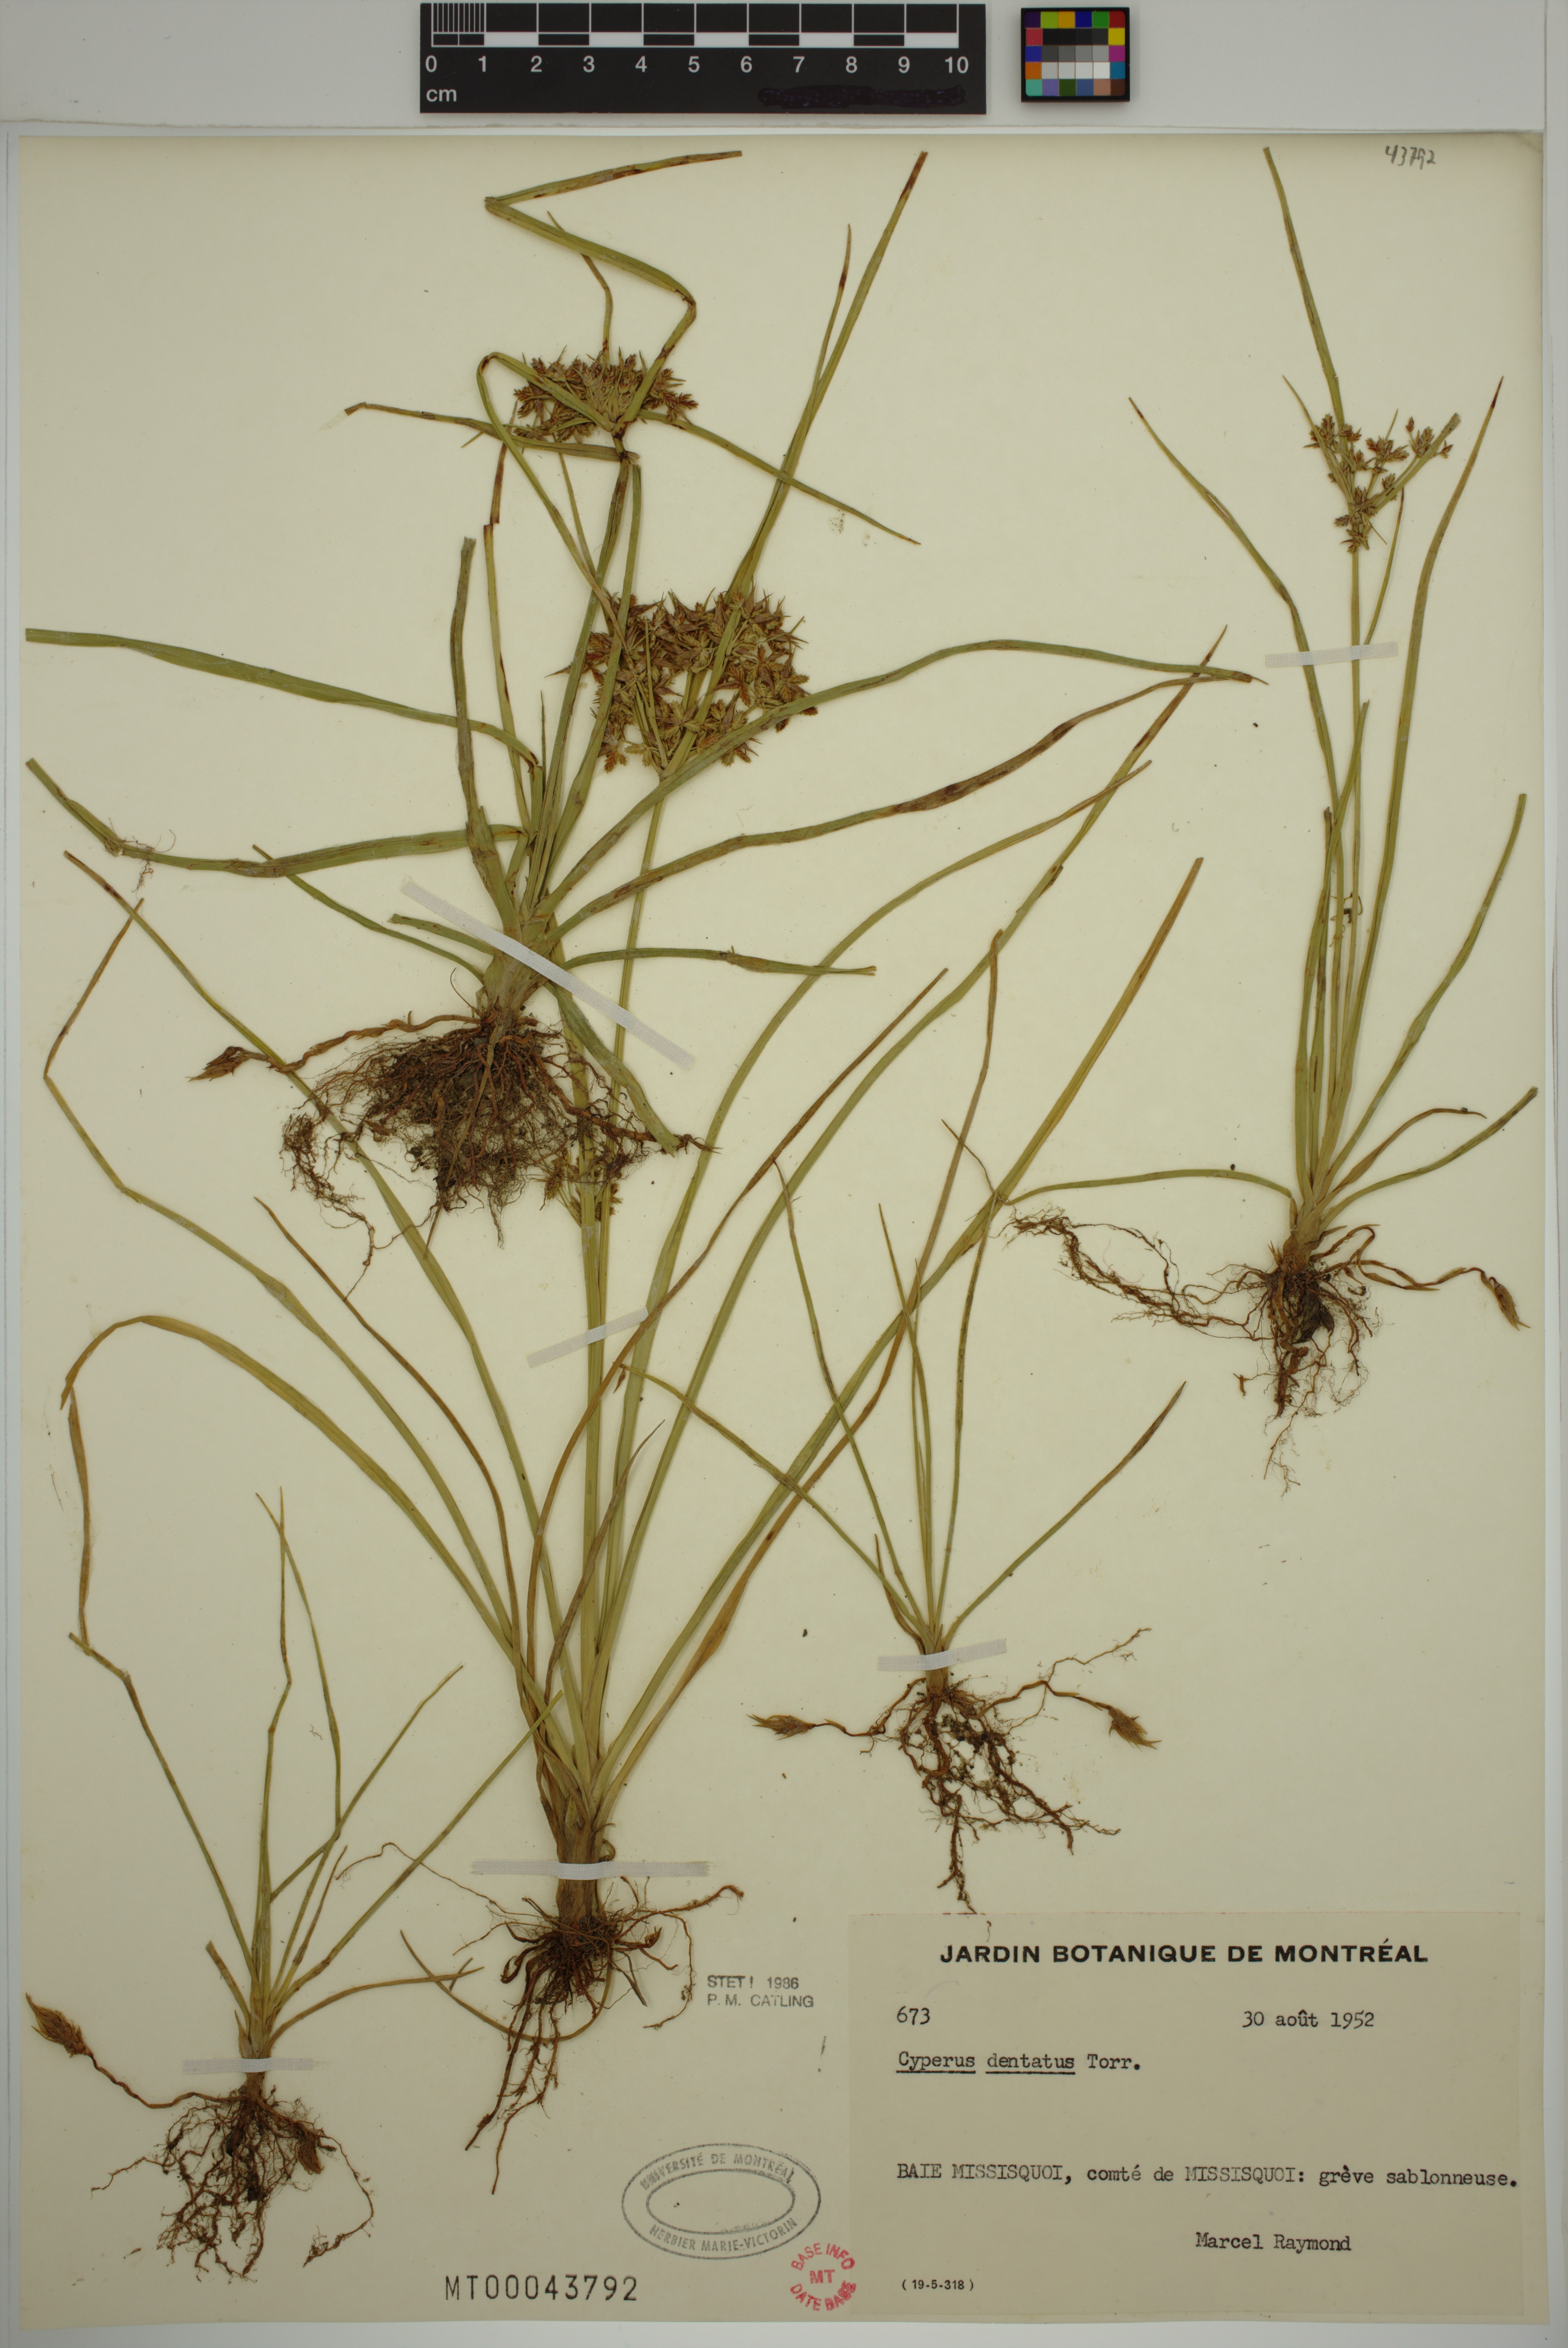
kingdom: Plantae
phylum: Tracheophyta
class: Liliopsida
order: Poales
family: Cyperaceae
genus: Cyperus
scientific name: Cyperus dentatus
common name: Dentate umbrella sedge
